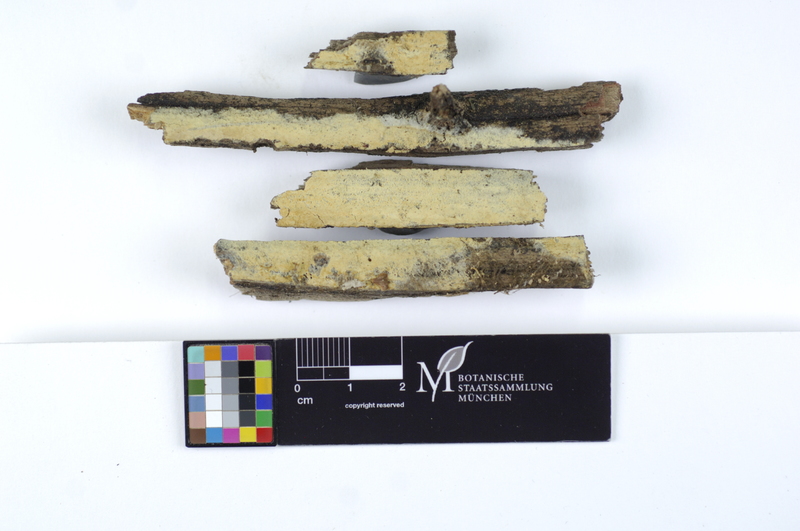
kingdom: Fungi
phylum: Basidiomycota
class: Agaricomycetes
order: Boletales
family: Coniophoraceae
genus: Coniophora
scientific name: Coniophora arida
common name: Dry duster
